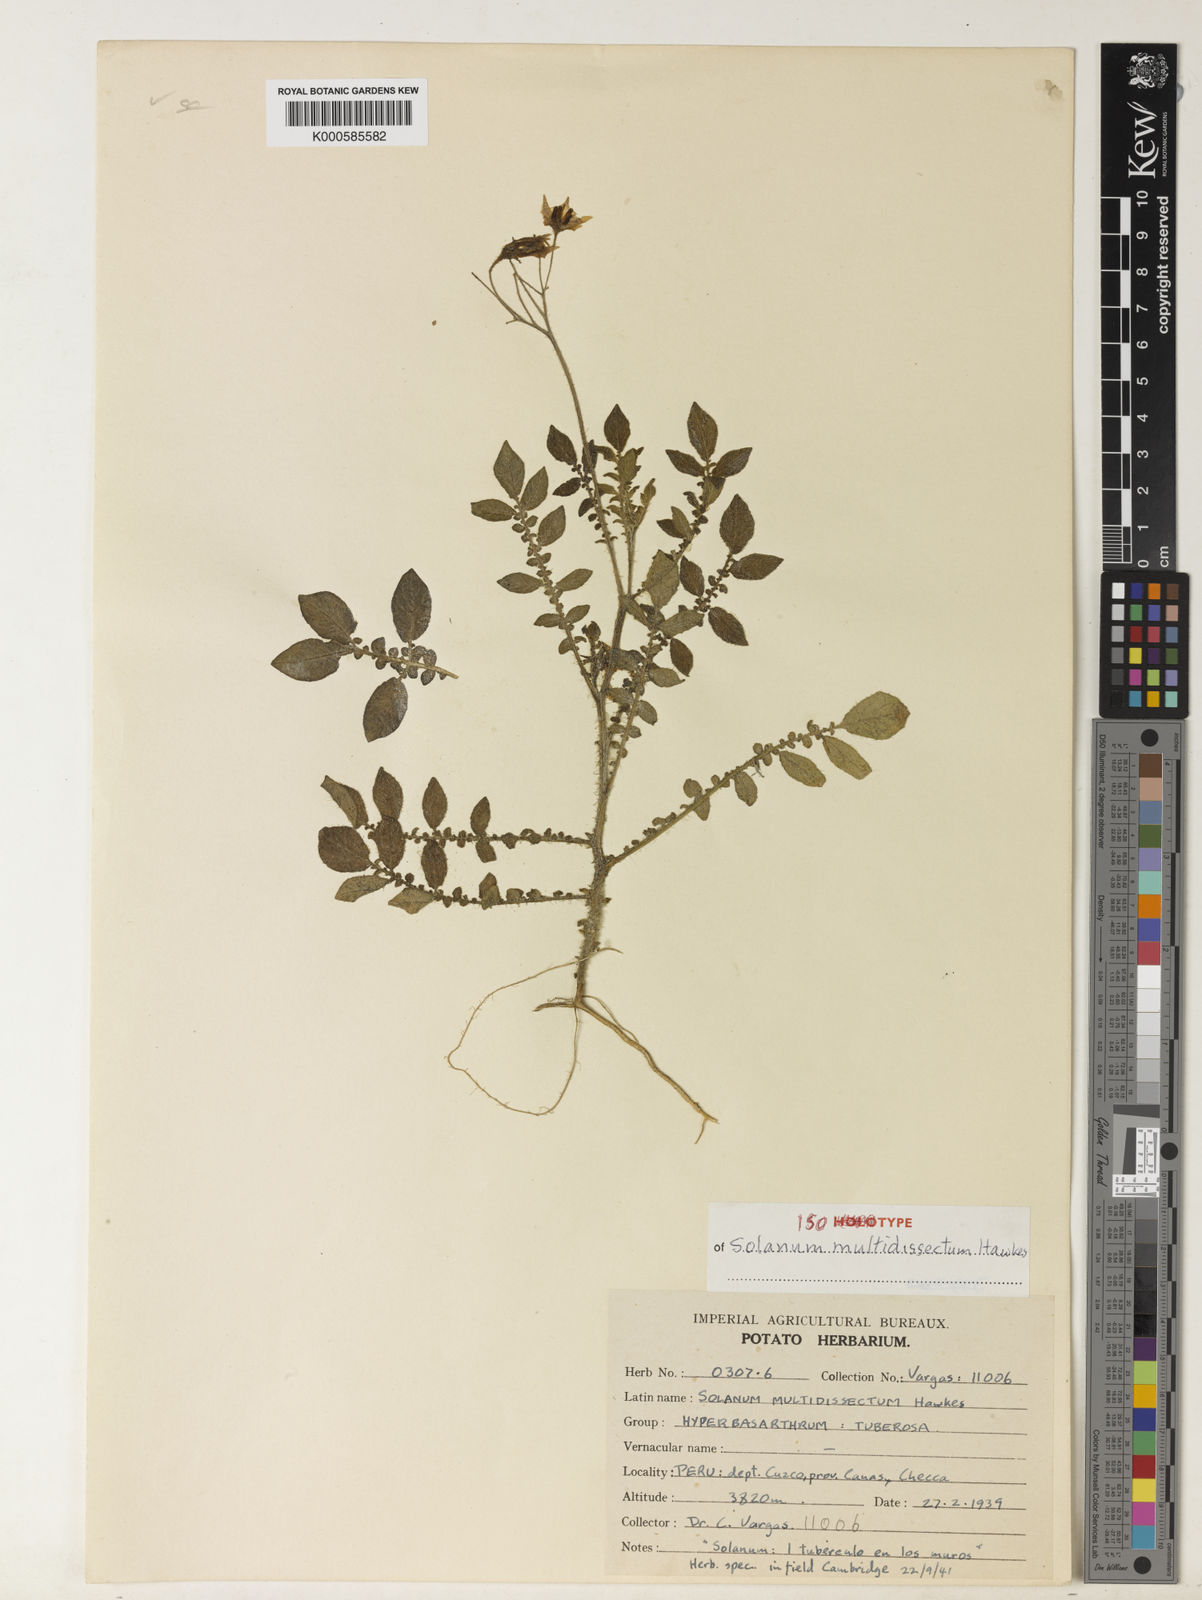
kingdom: Plantae
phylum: Tracheophyta
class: Magnoliopsida
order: Solanales
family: Solanaceae
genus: Solanum
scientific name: Solanum candolleanum
